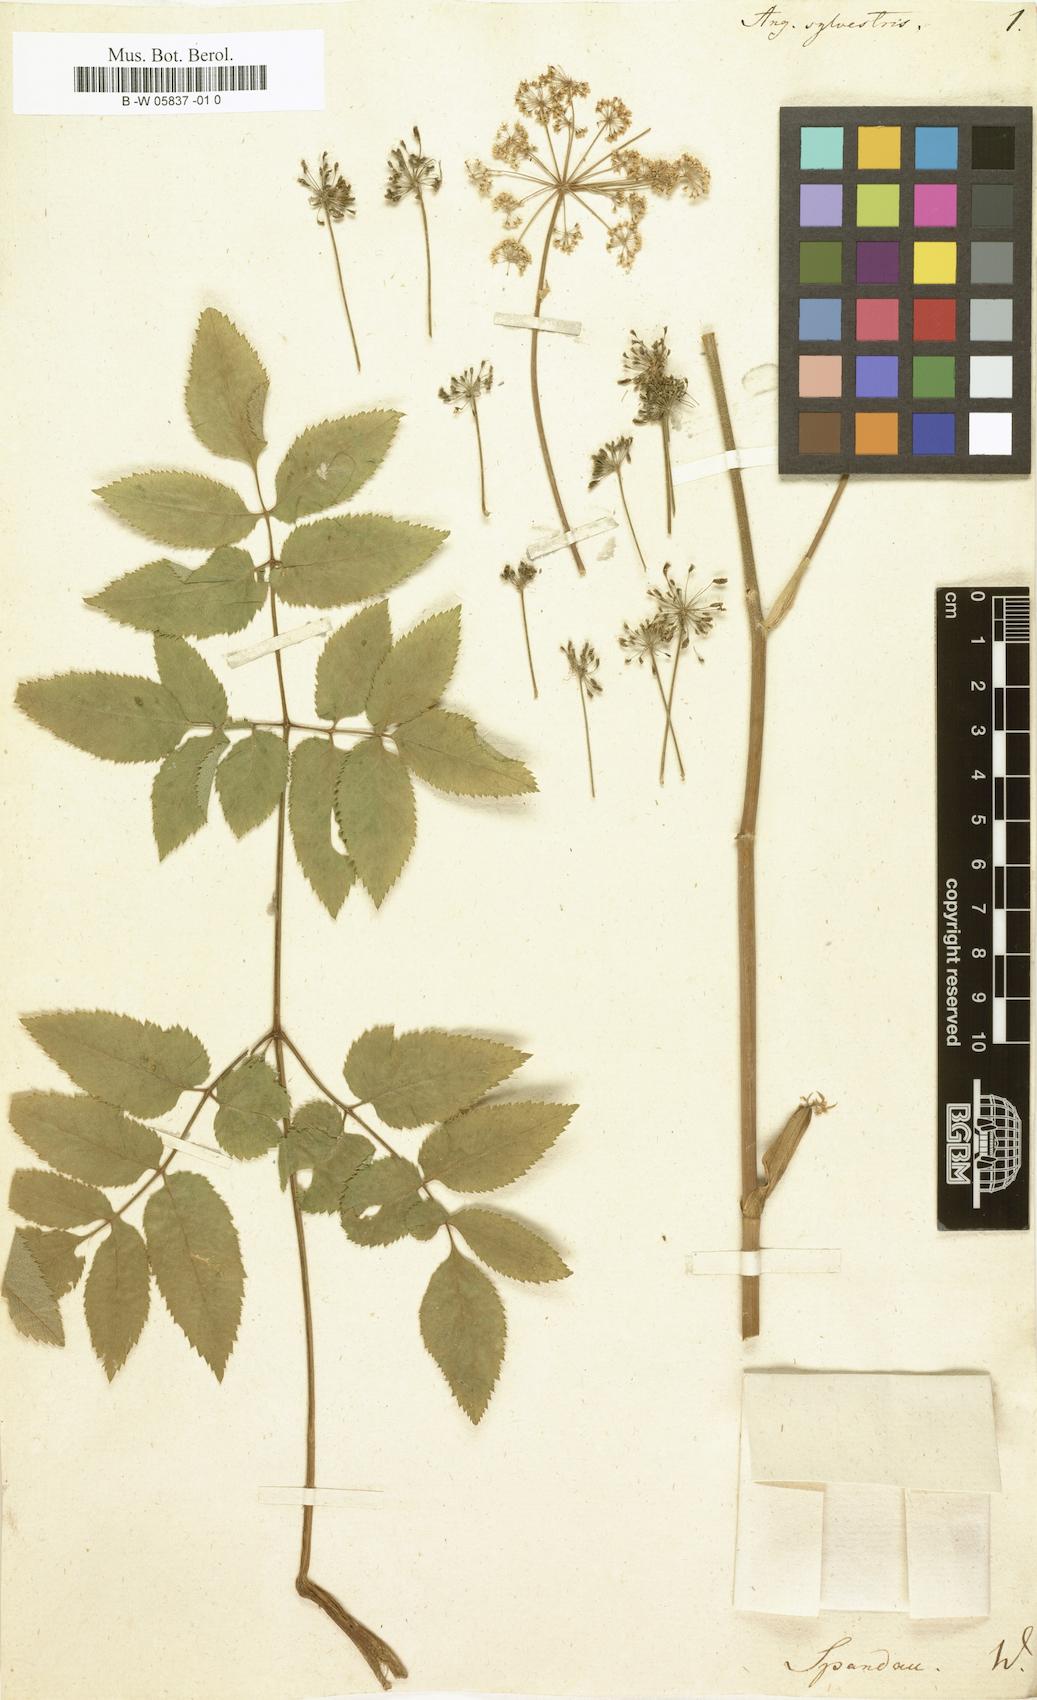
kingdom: Plantae
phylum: Tracheophyta
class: Magnoliopsida
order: Apiales
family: Apiaceae
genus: Angelica
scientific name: Angelica sylvestris
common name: Wild angelica
